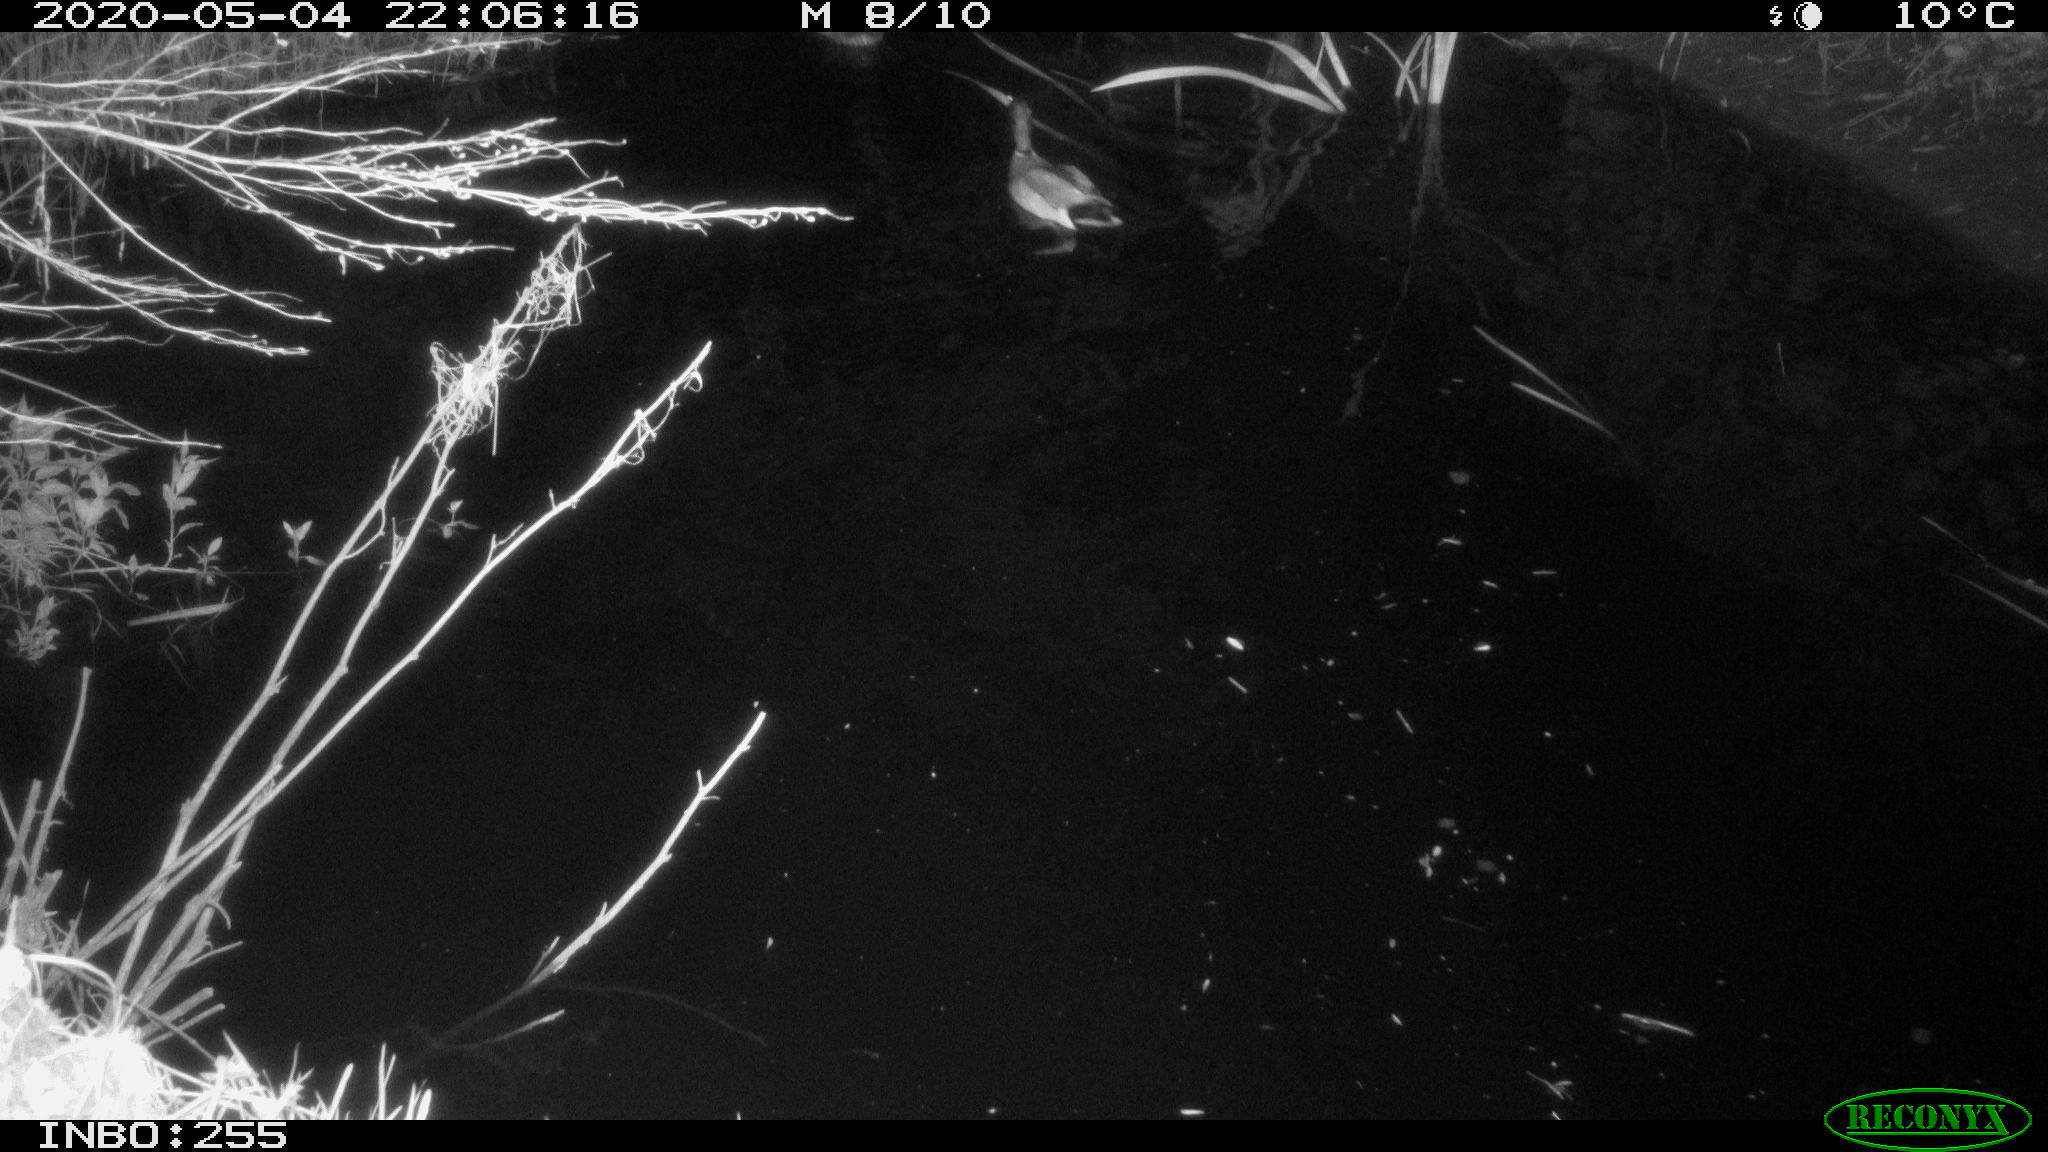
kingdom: Animalia
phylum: Chordata
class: Aves
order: Anseriformes
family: Anatidae
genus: Anas
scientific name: Anas platyrhynchos
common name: Mallard
